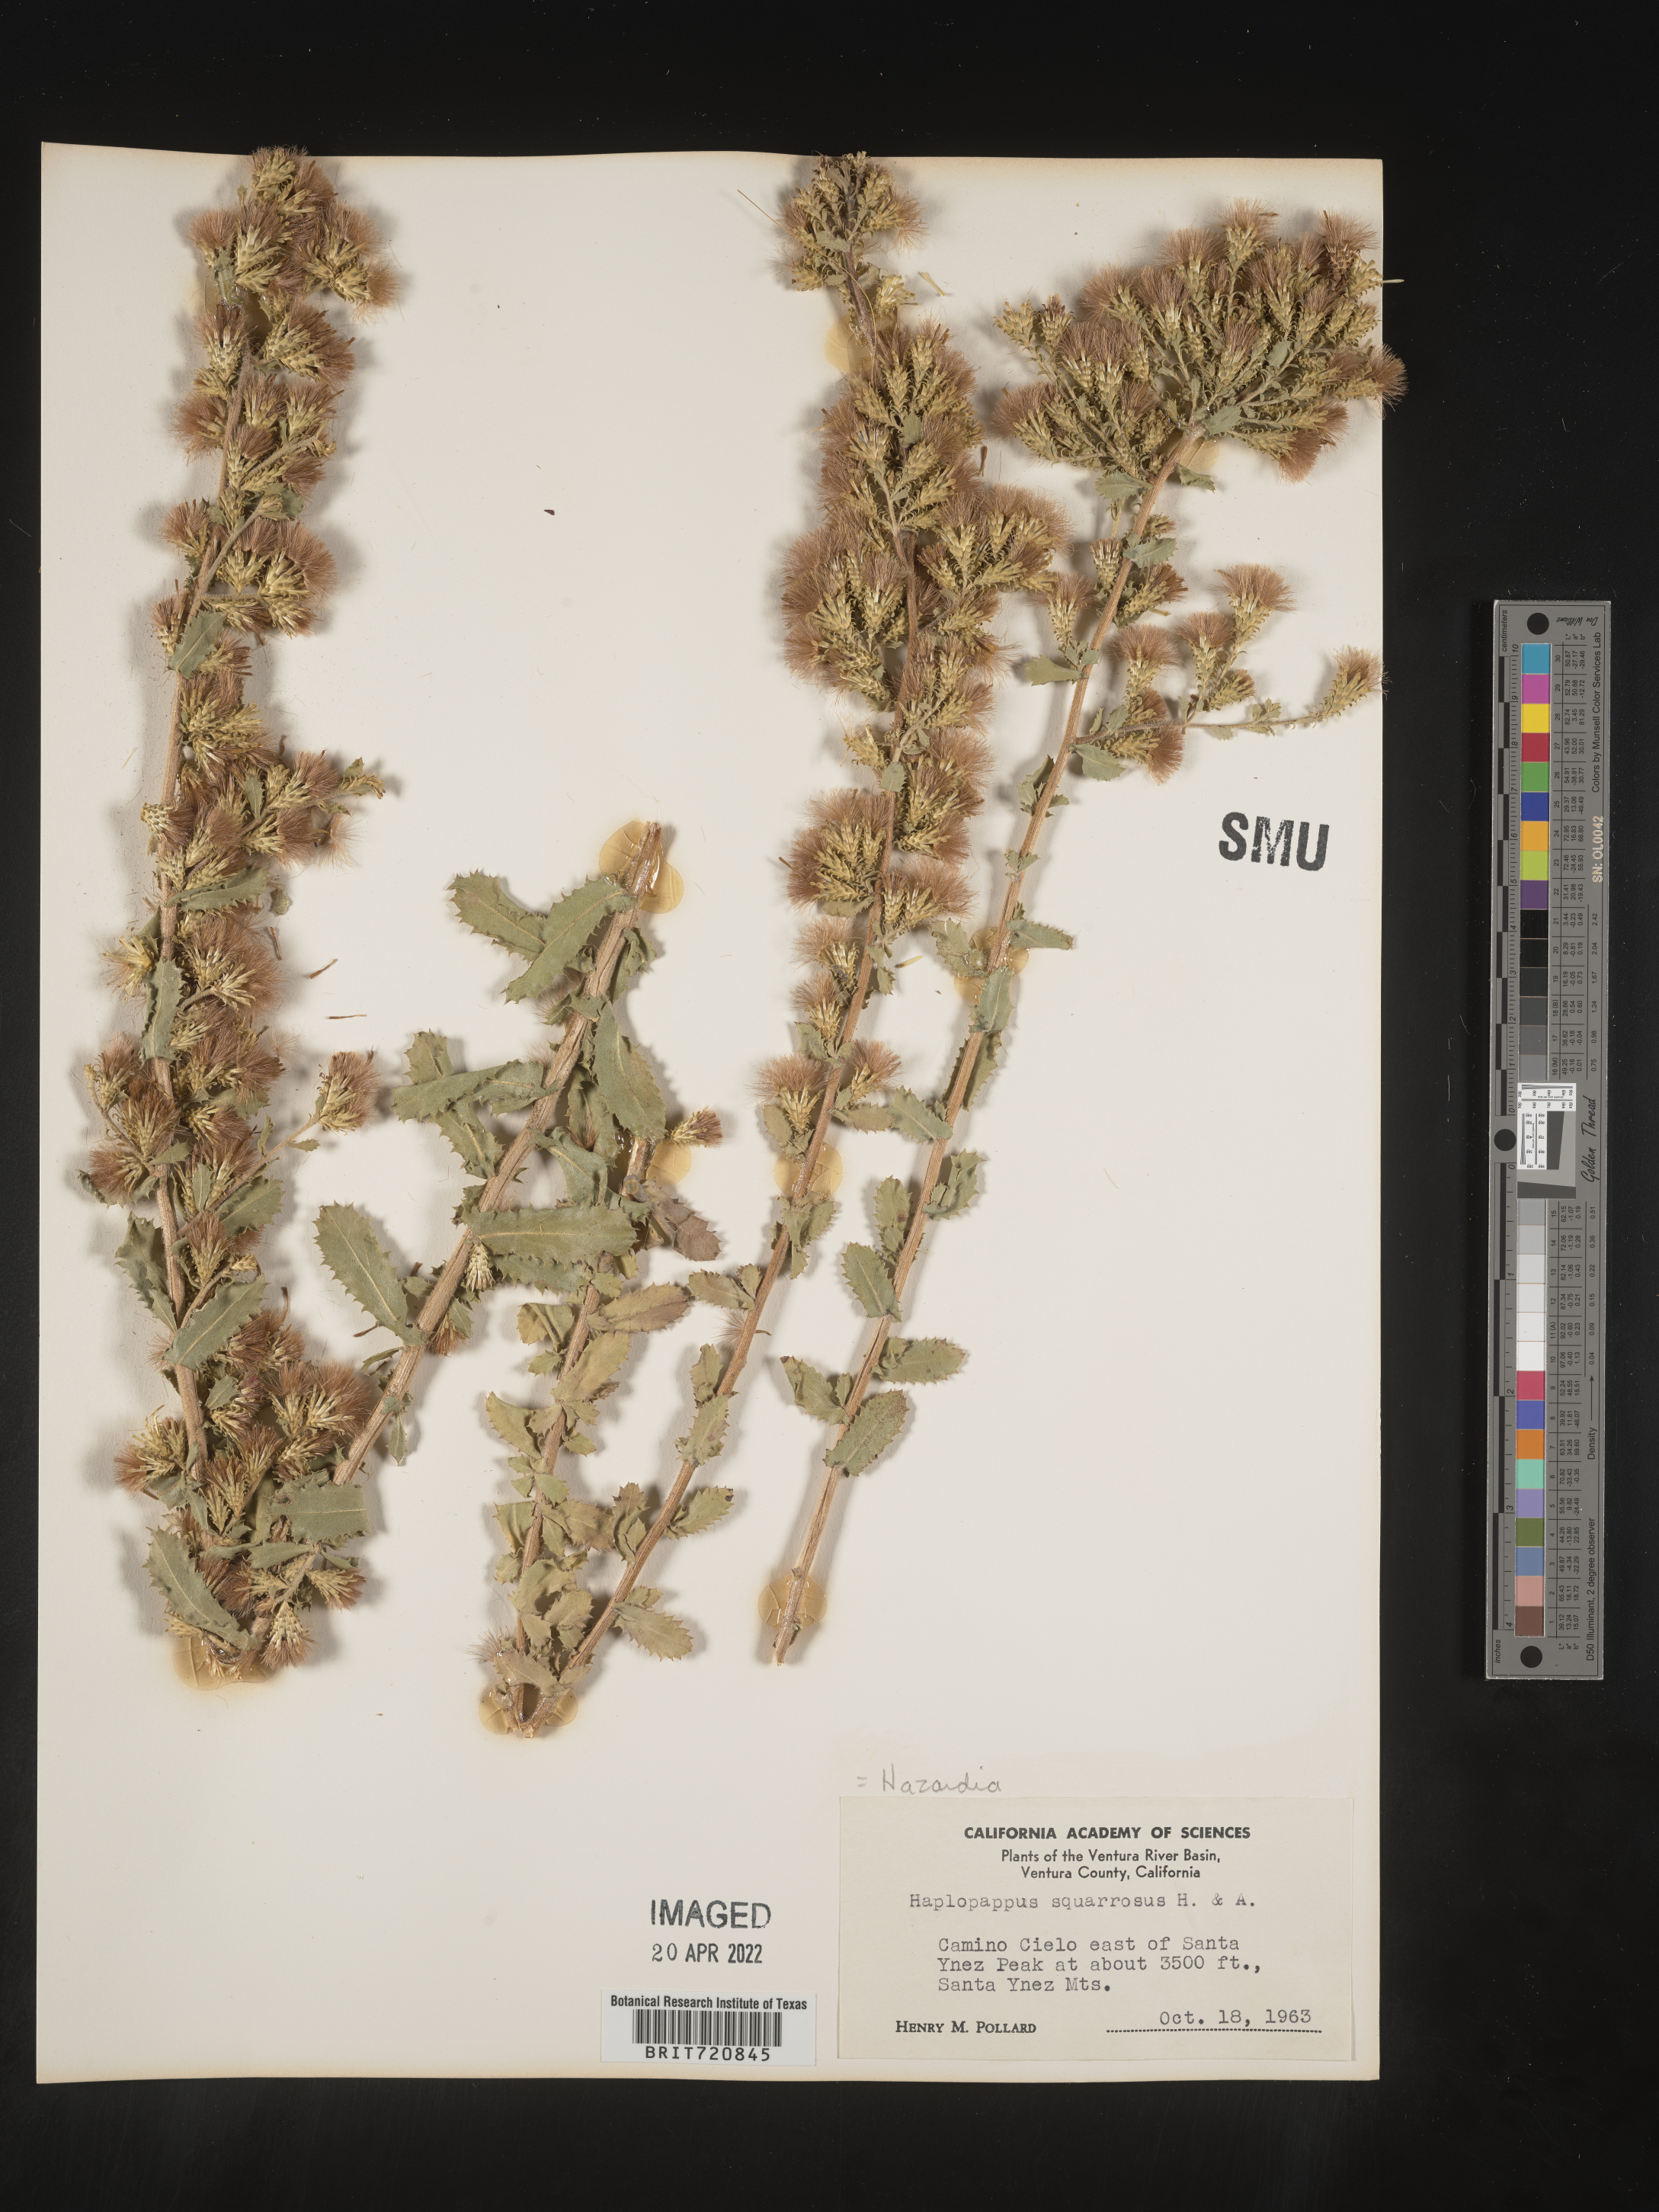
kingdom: Plantae
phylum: Tracheophyta
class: Magnoliopsida
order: Asterales
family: Asteraceae
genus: Hazardia
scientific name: Hazardia squarrosa
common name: Saw-tooth goldenbush
